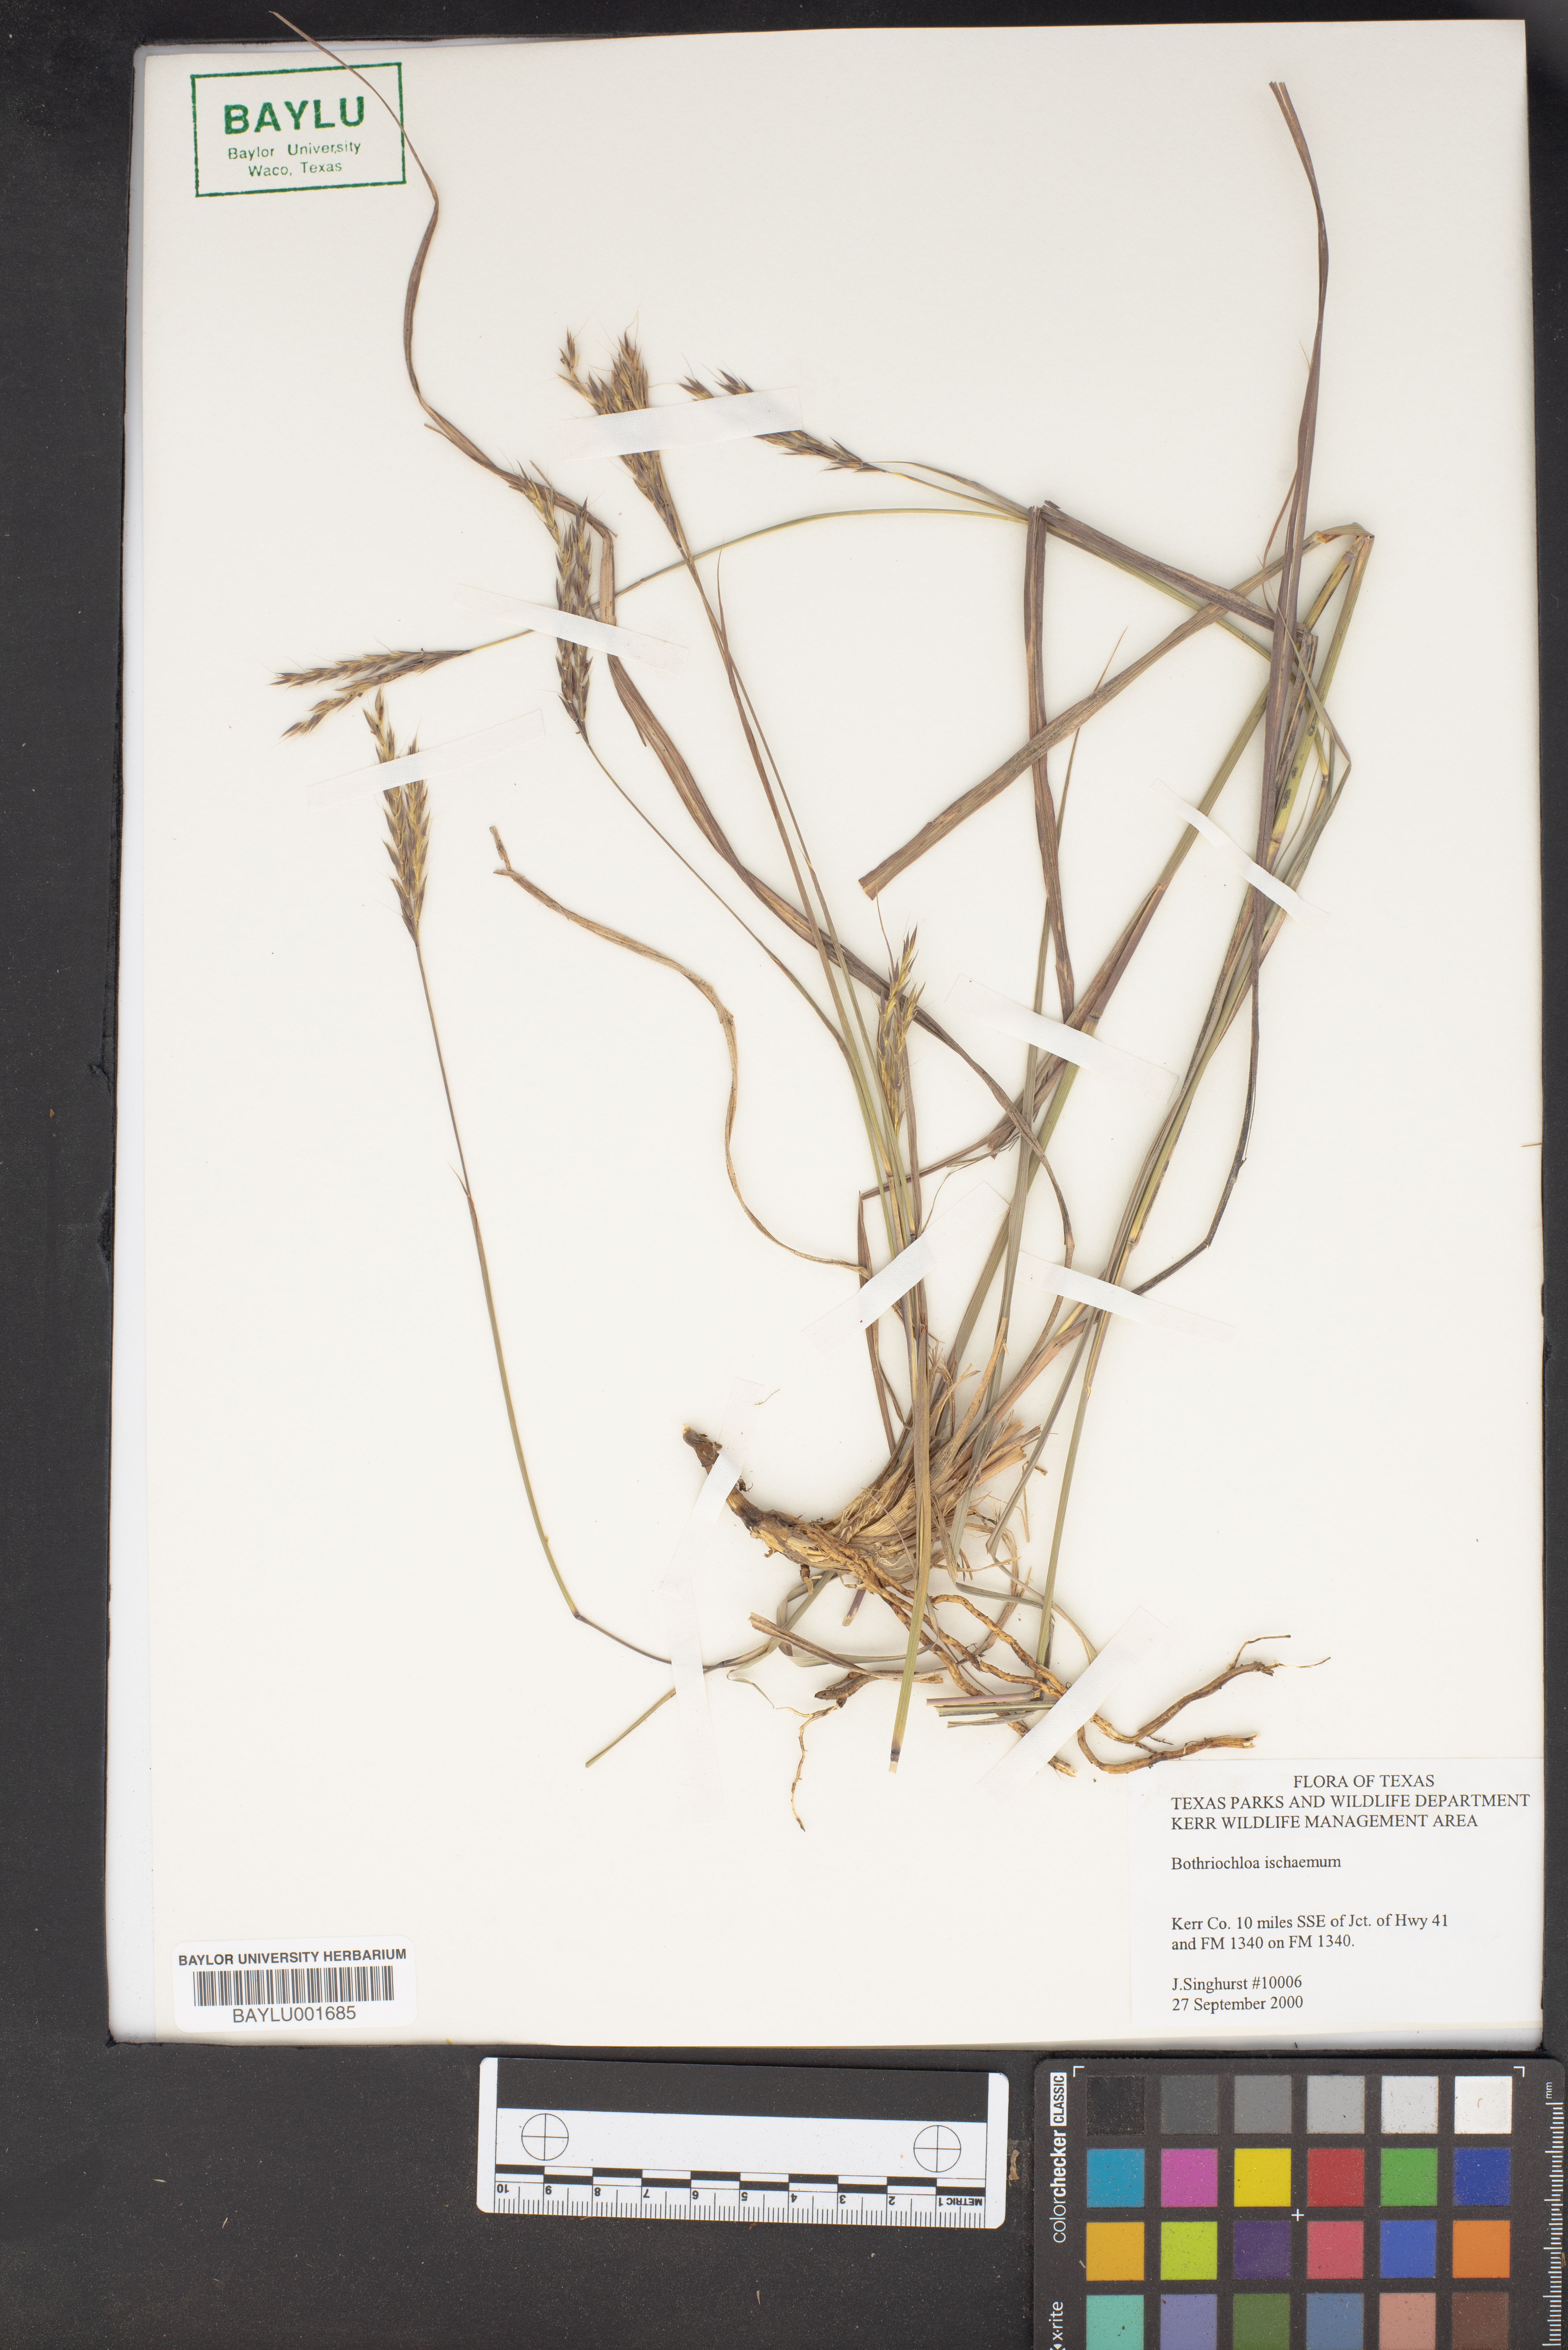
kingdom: Plantae
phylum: Tracheophyta
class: Liliopsida
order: Poales
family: Poaceae
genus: Bothriochloa
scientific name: Bothriochloa ischaemum
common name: Yellow bluestem
